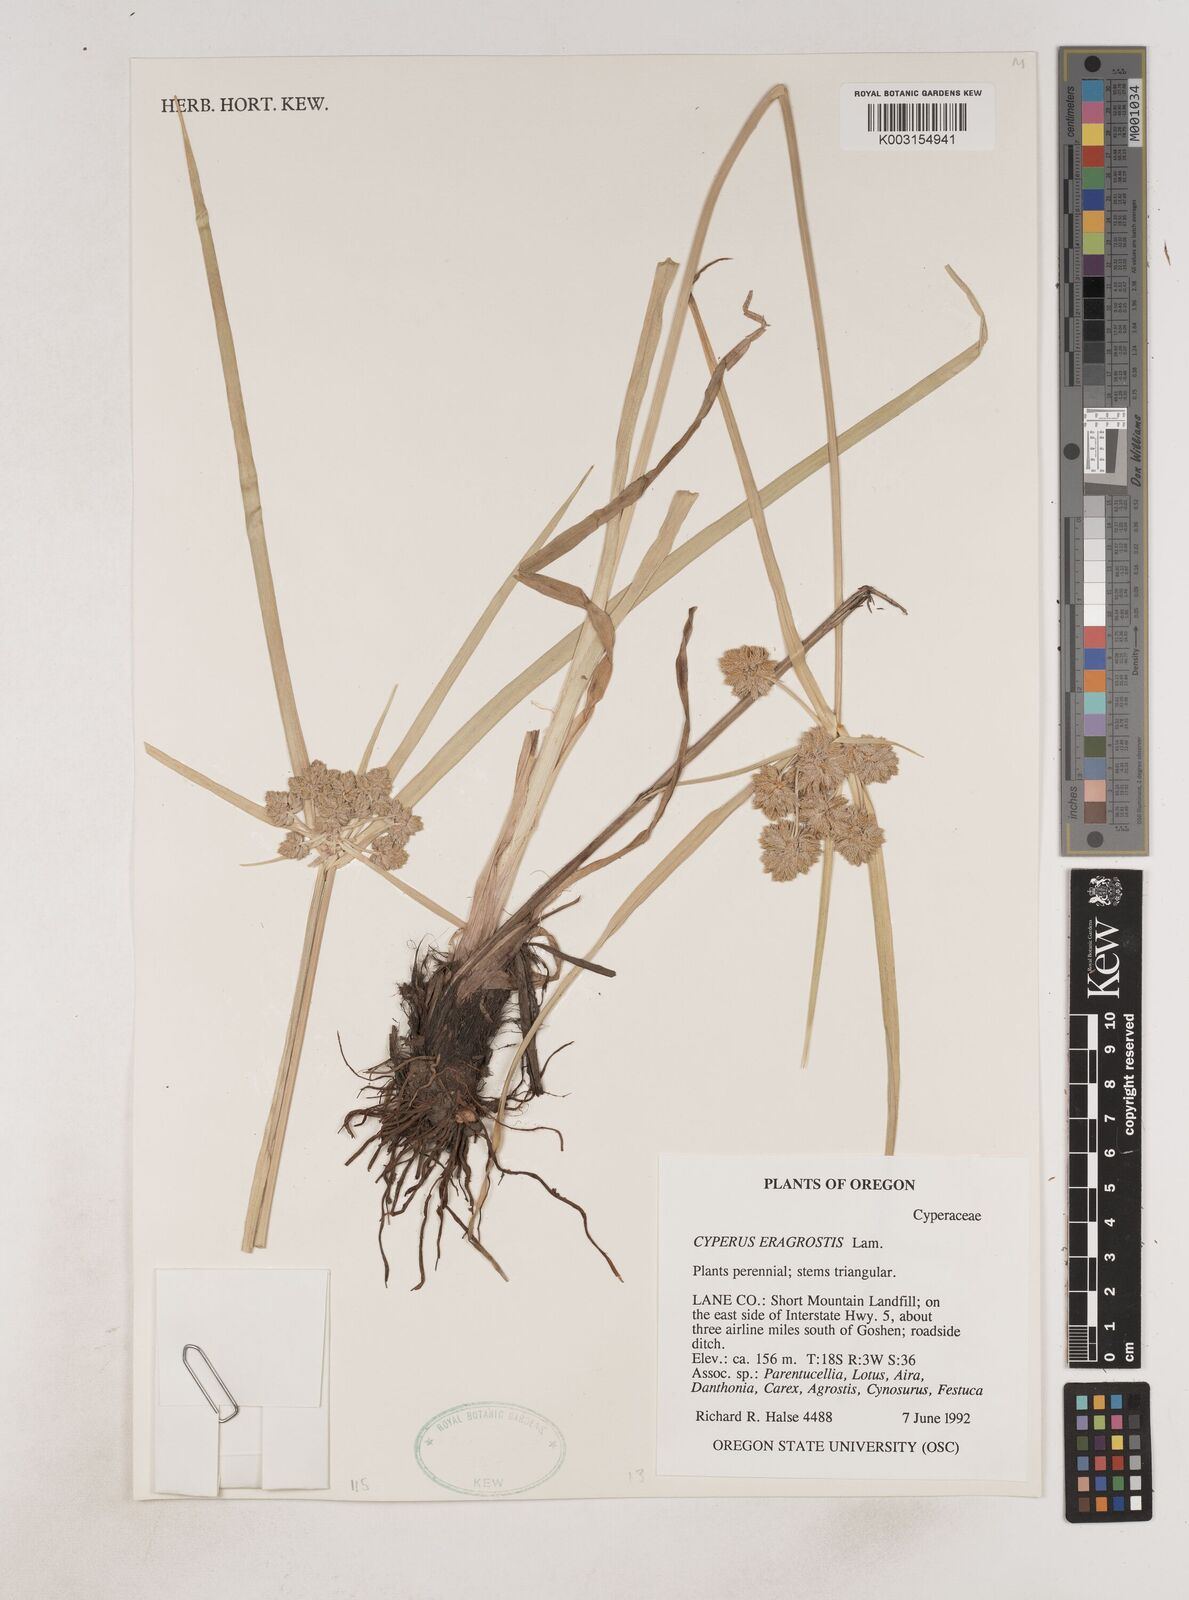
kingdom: Plantae
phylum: Tracheophyta
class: Liliopsida
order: Poales
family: Cyperaceae
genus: Cyperus
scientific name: Cyperus eragrostis
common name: Tall flatsedge
